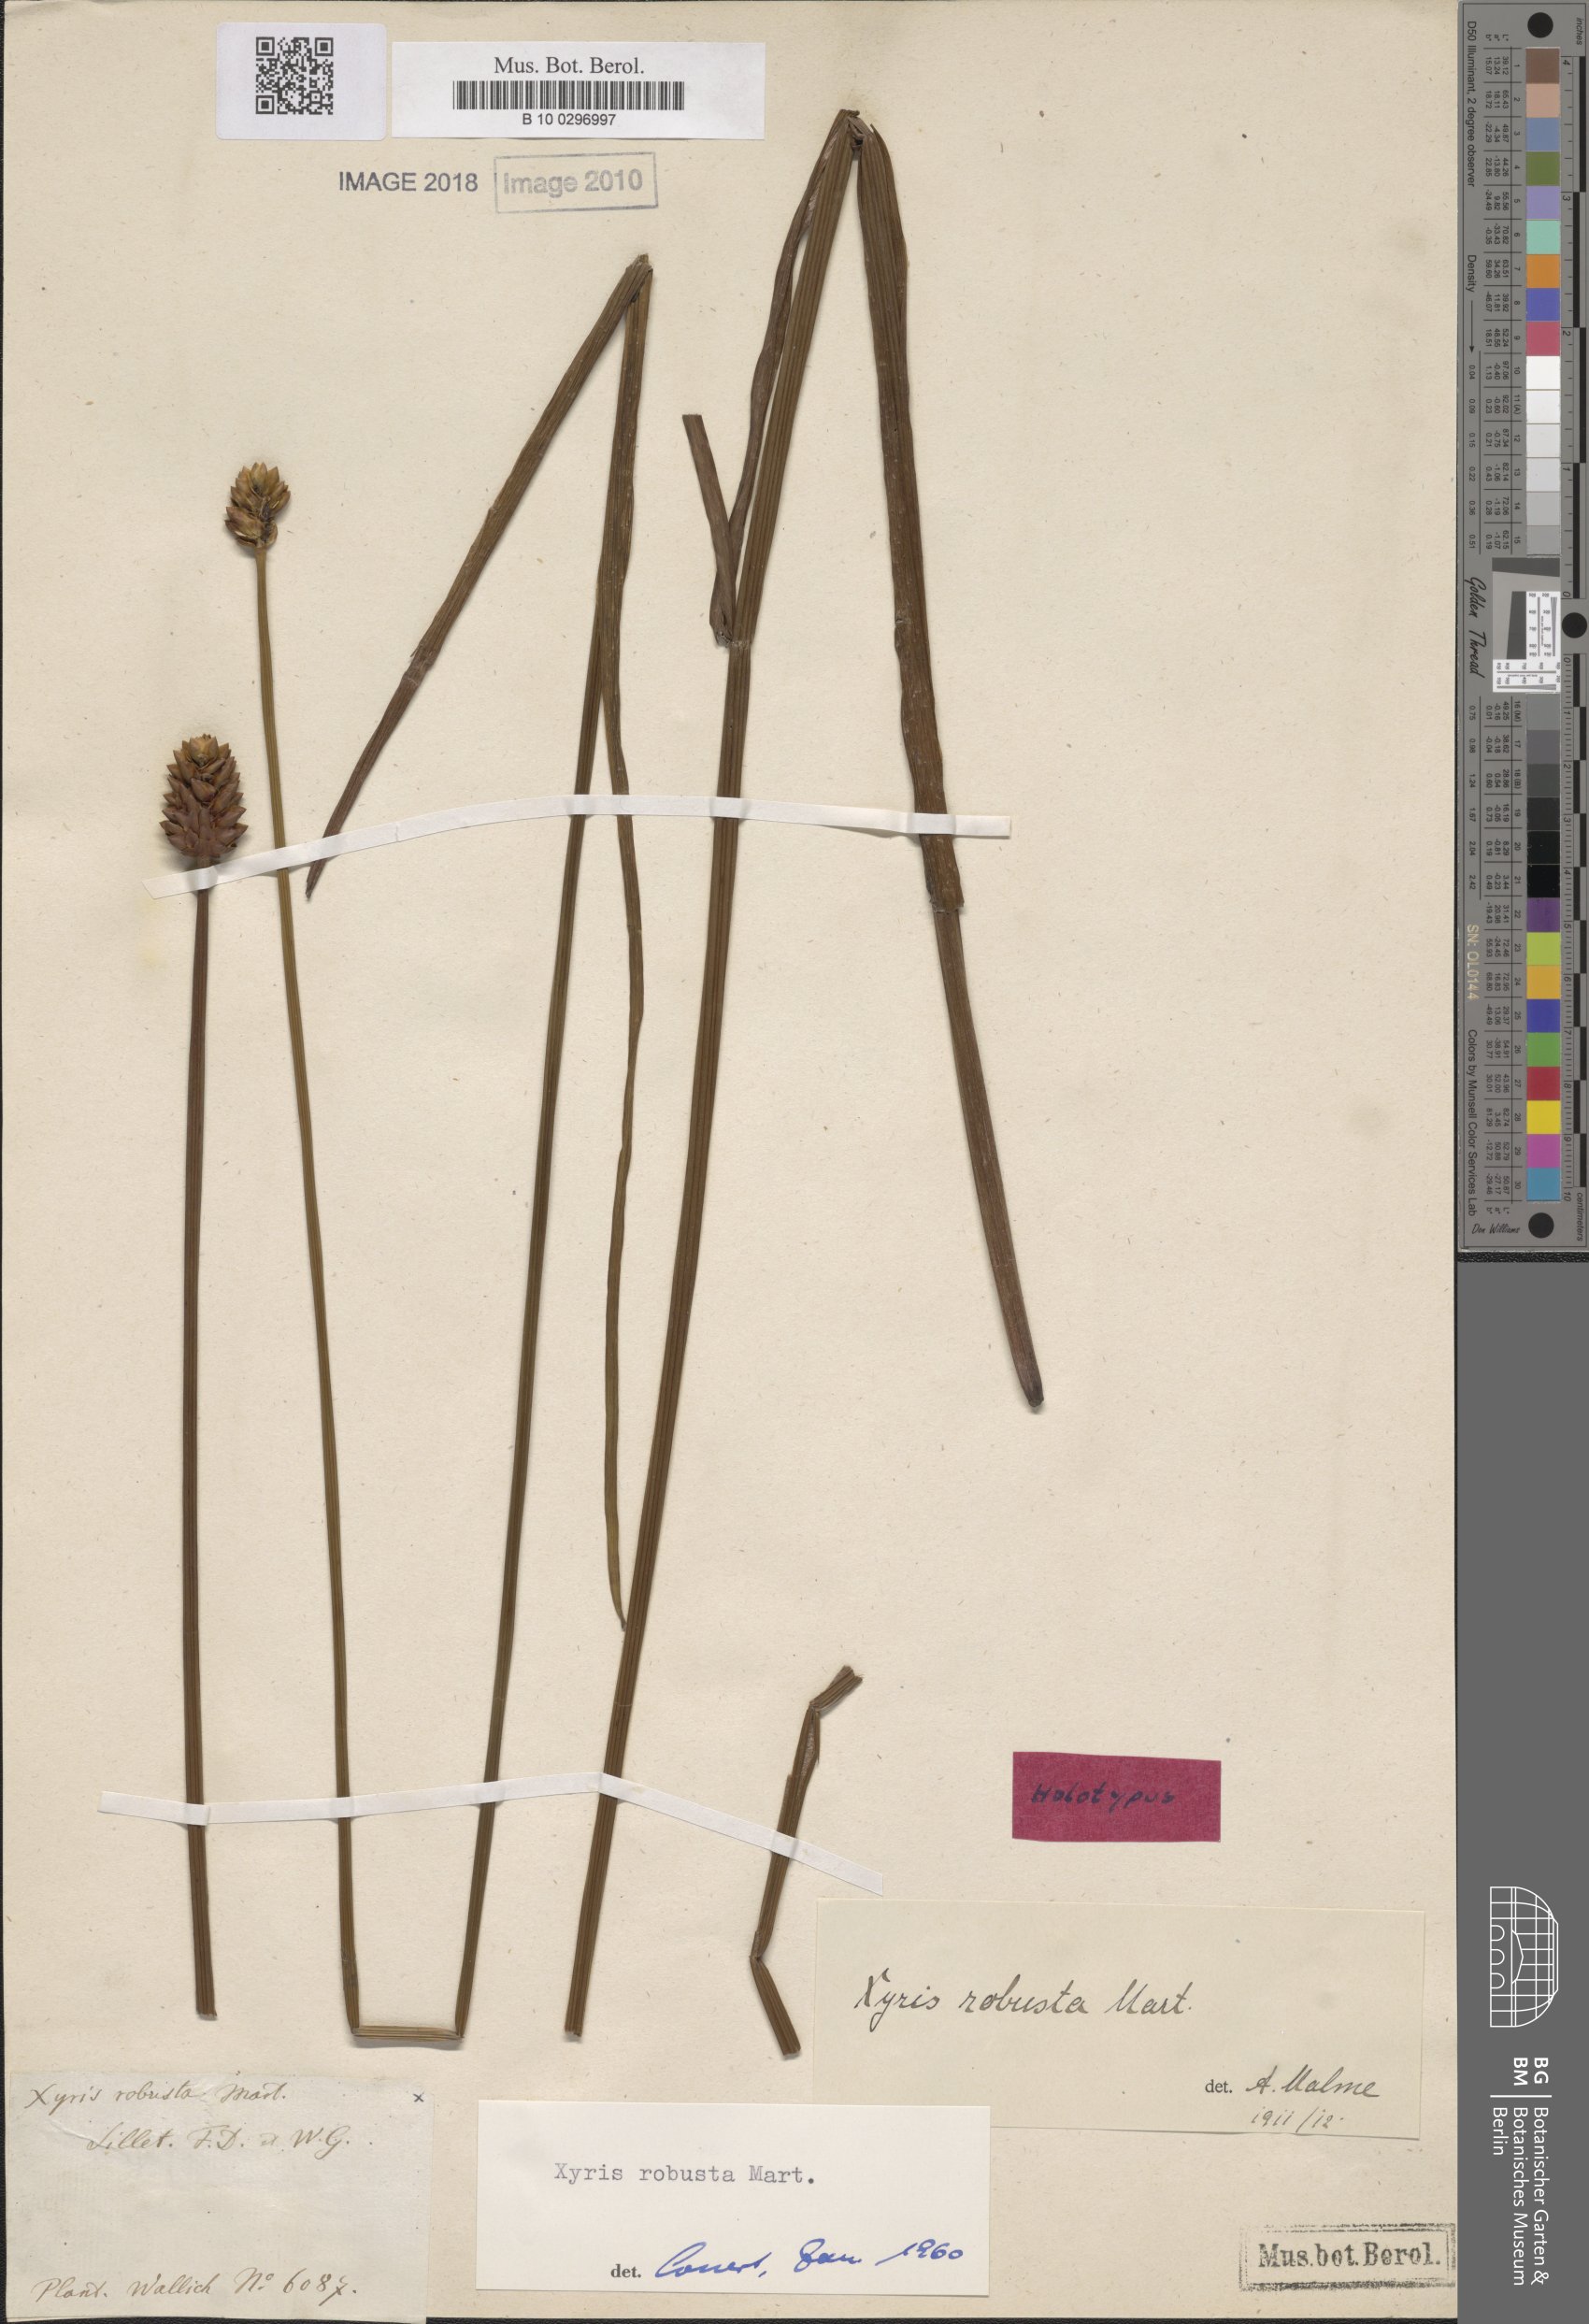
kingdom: Plantae
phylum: Tracheophyta
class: Liliopsida
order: Poales
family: Xyridaceae
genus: Xyris
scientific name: Xyris indica
